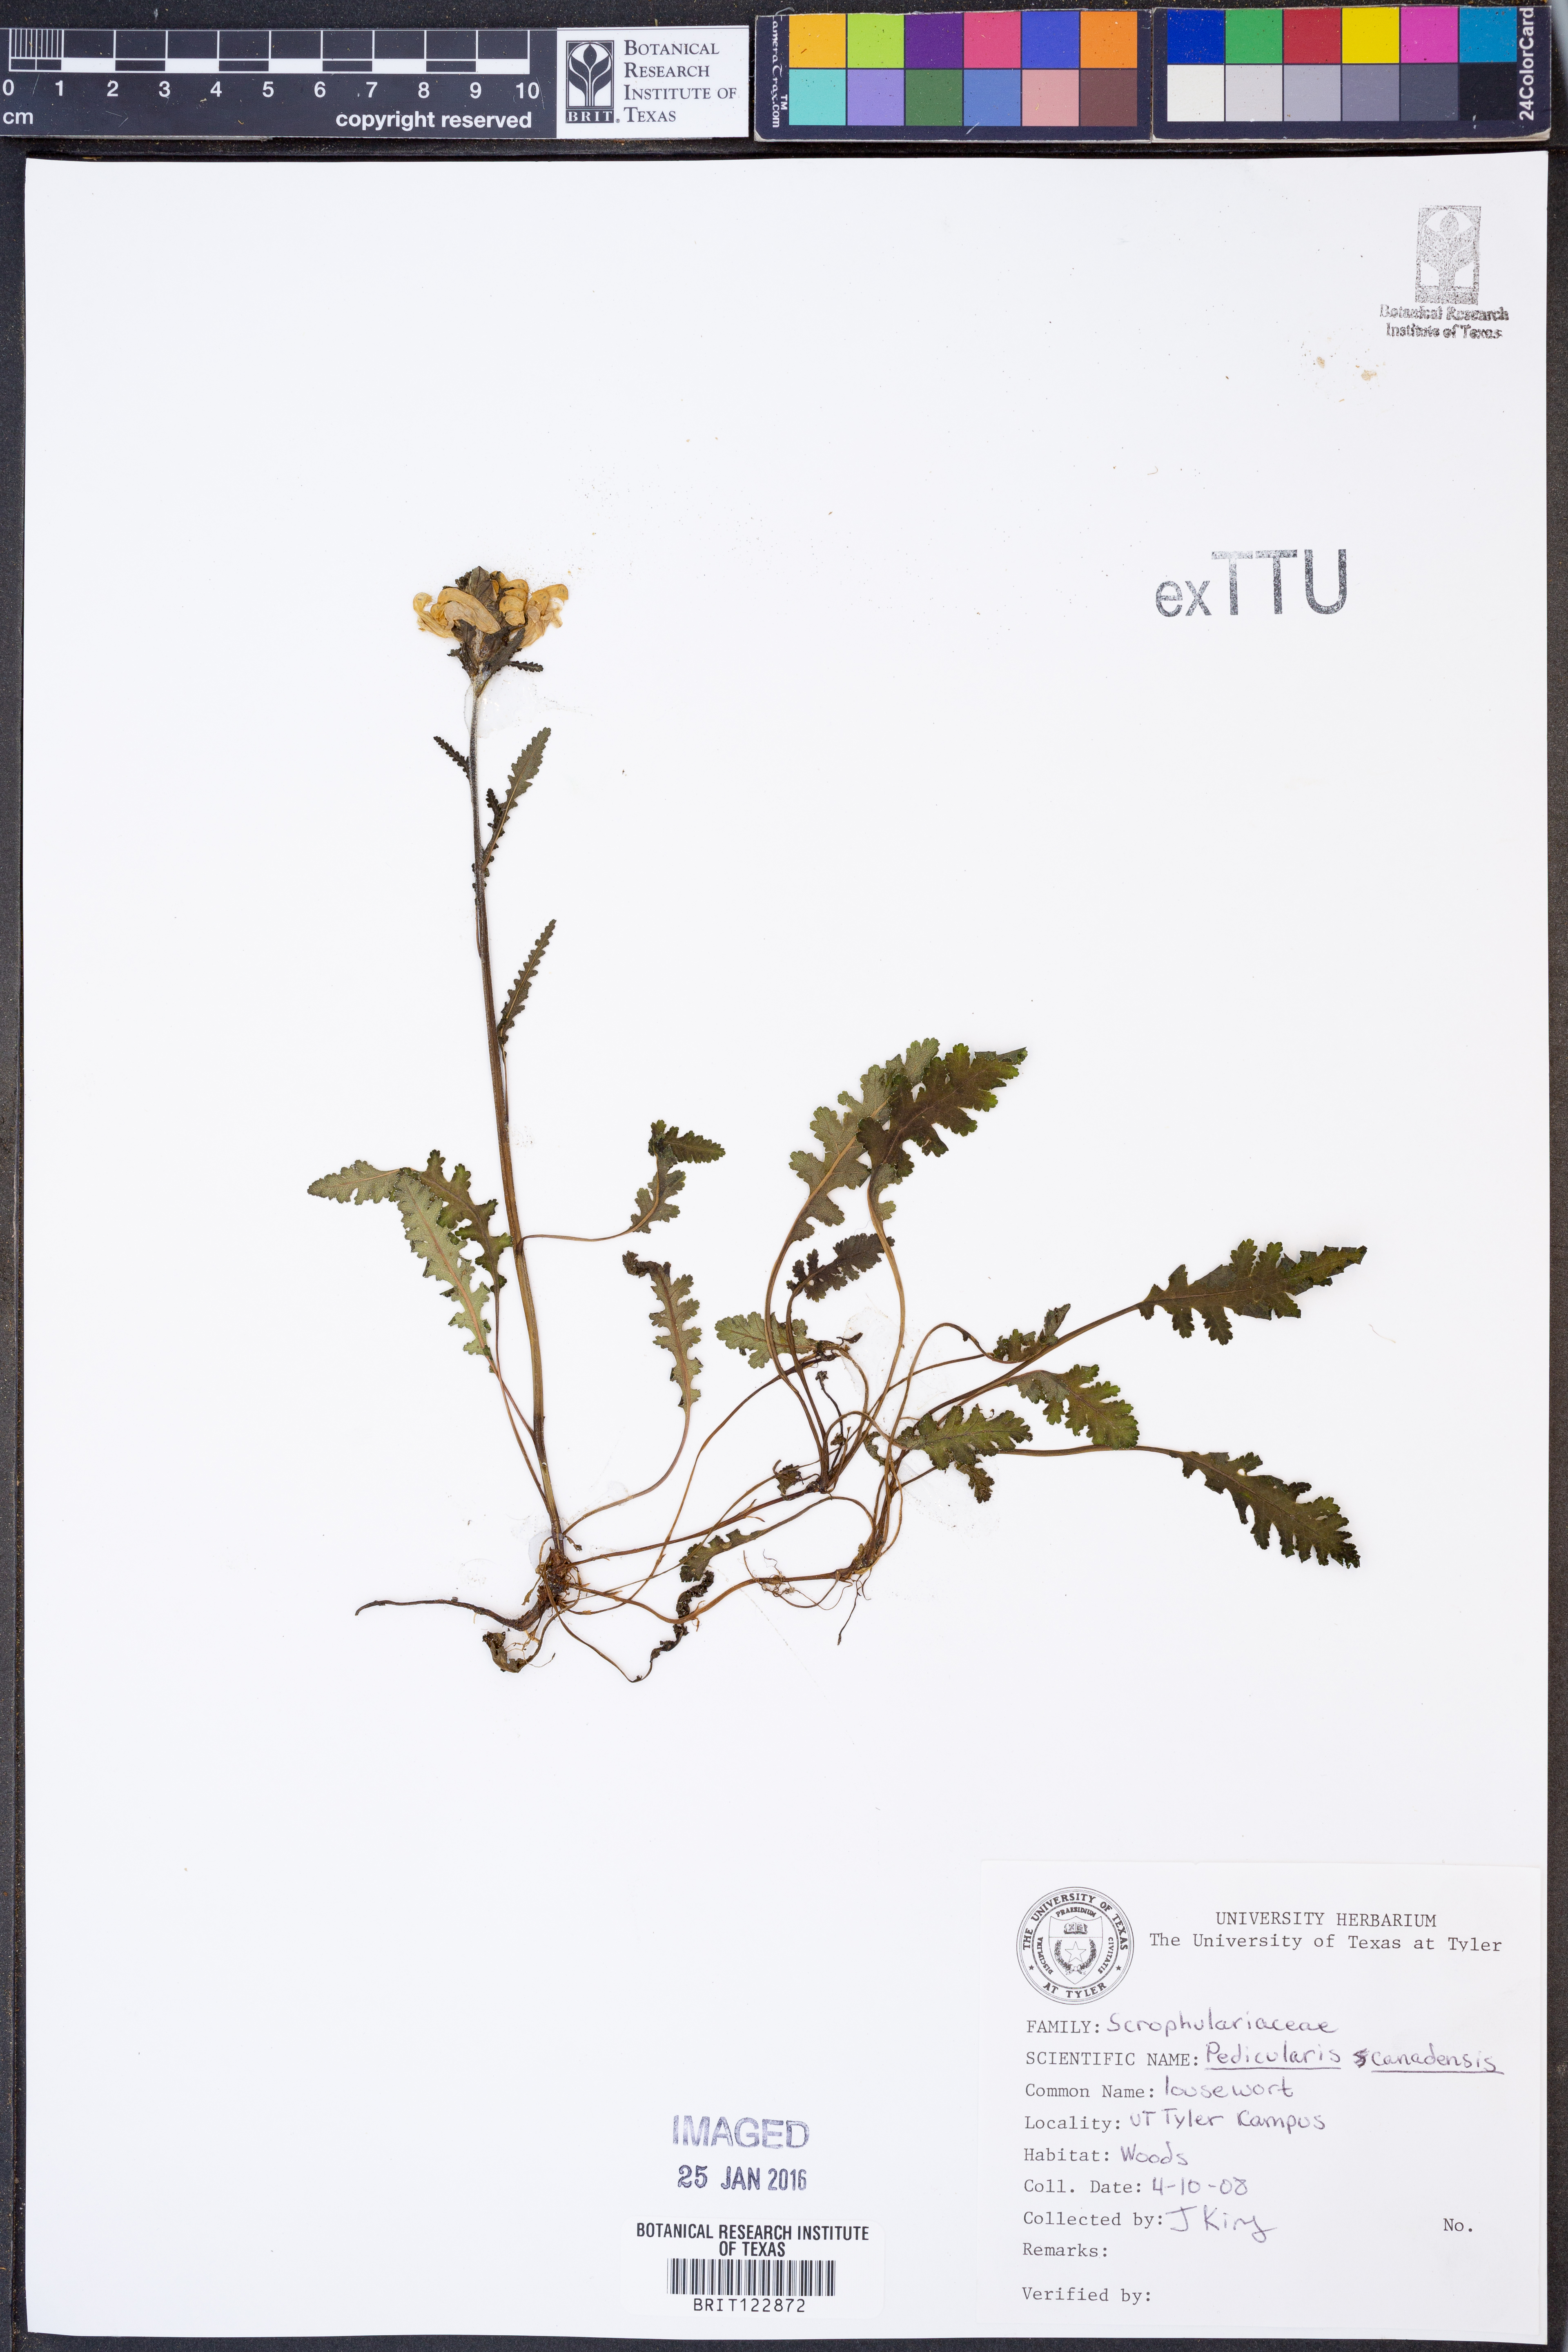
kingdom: Plantae
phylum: Tracheophyta
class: Magnoliopsida
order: Lamiales
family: Orobanchaceae
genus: Pedicularis
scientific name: Pedicularis canadensis
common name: Early lousewort
